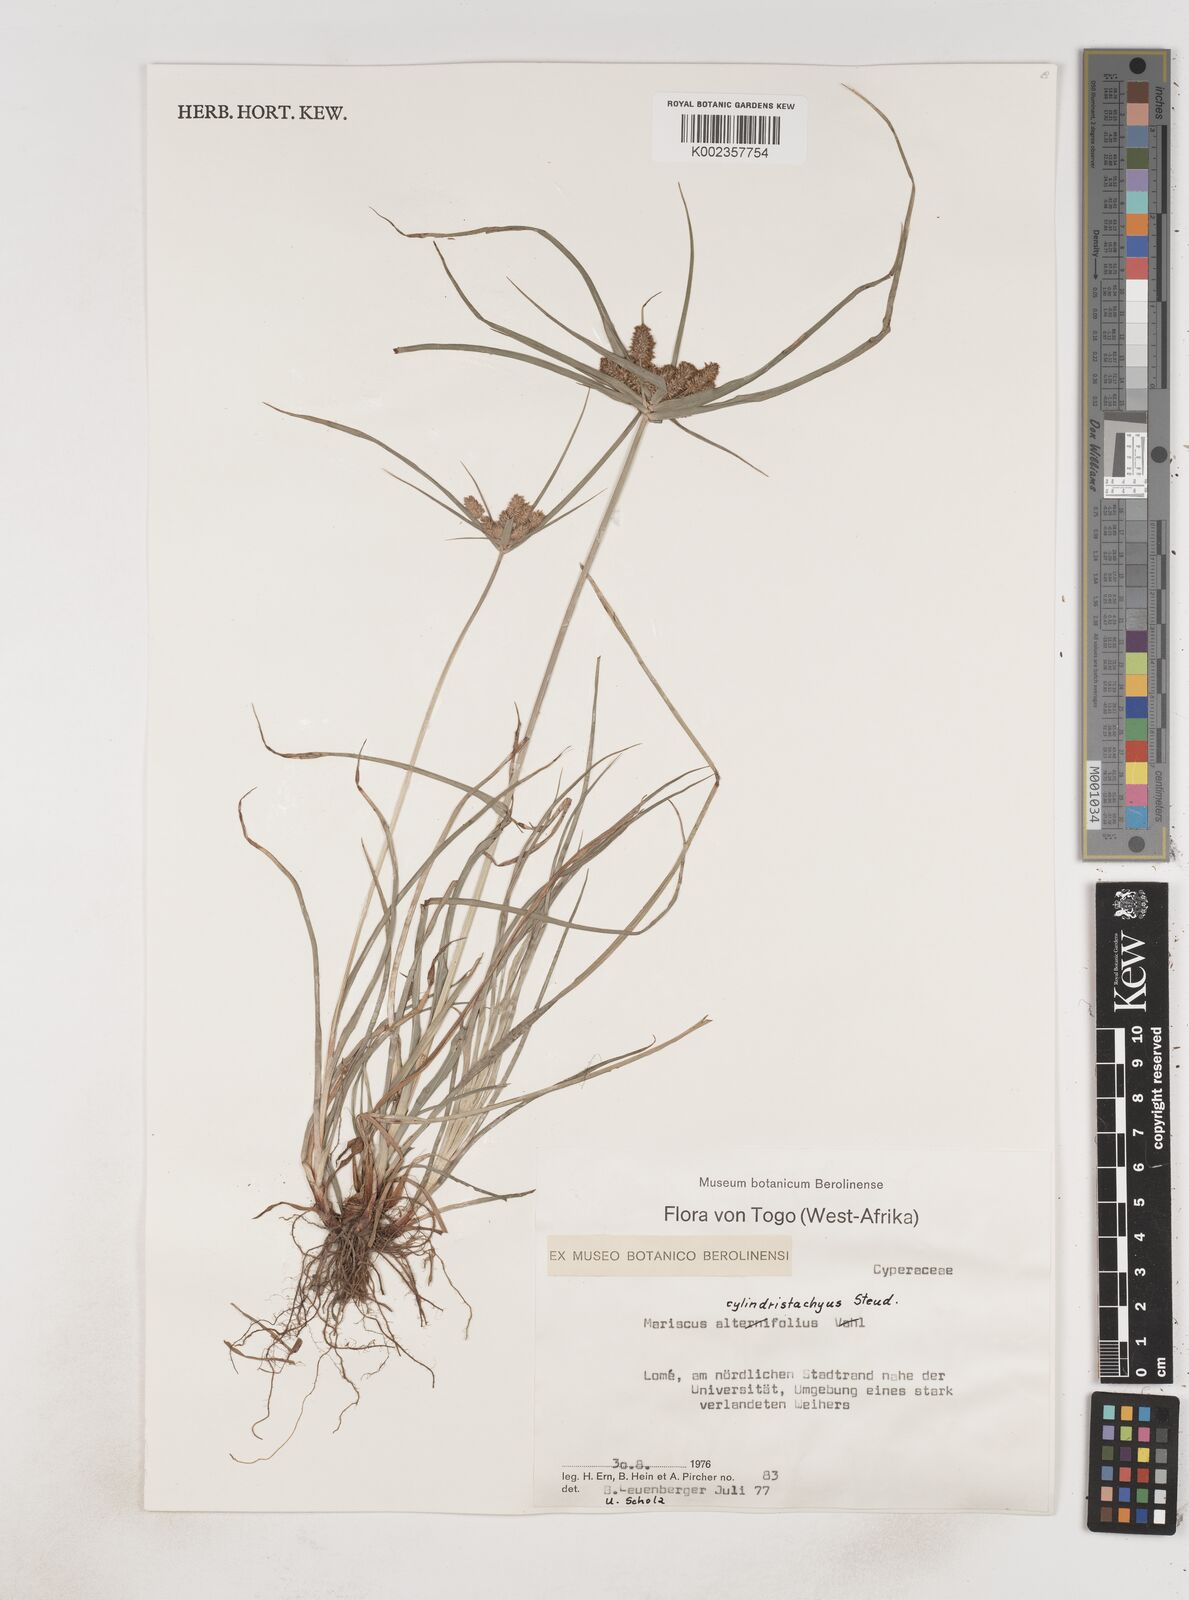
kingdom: Plantae
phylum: Tracheophyta
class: Liliopsida
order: Poales
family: Cyperaceae
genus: Cyperus
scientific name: Cyperus alternifolius
